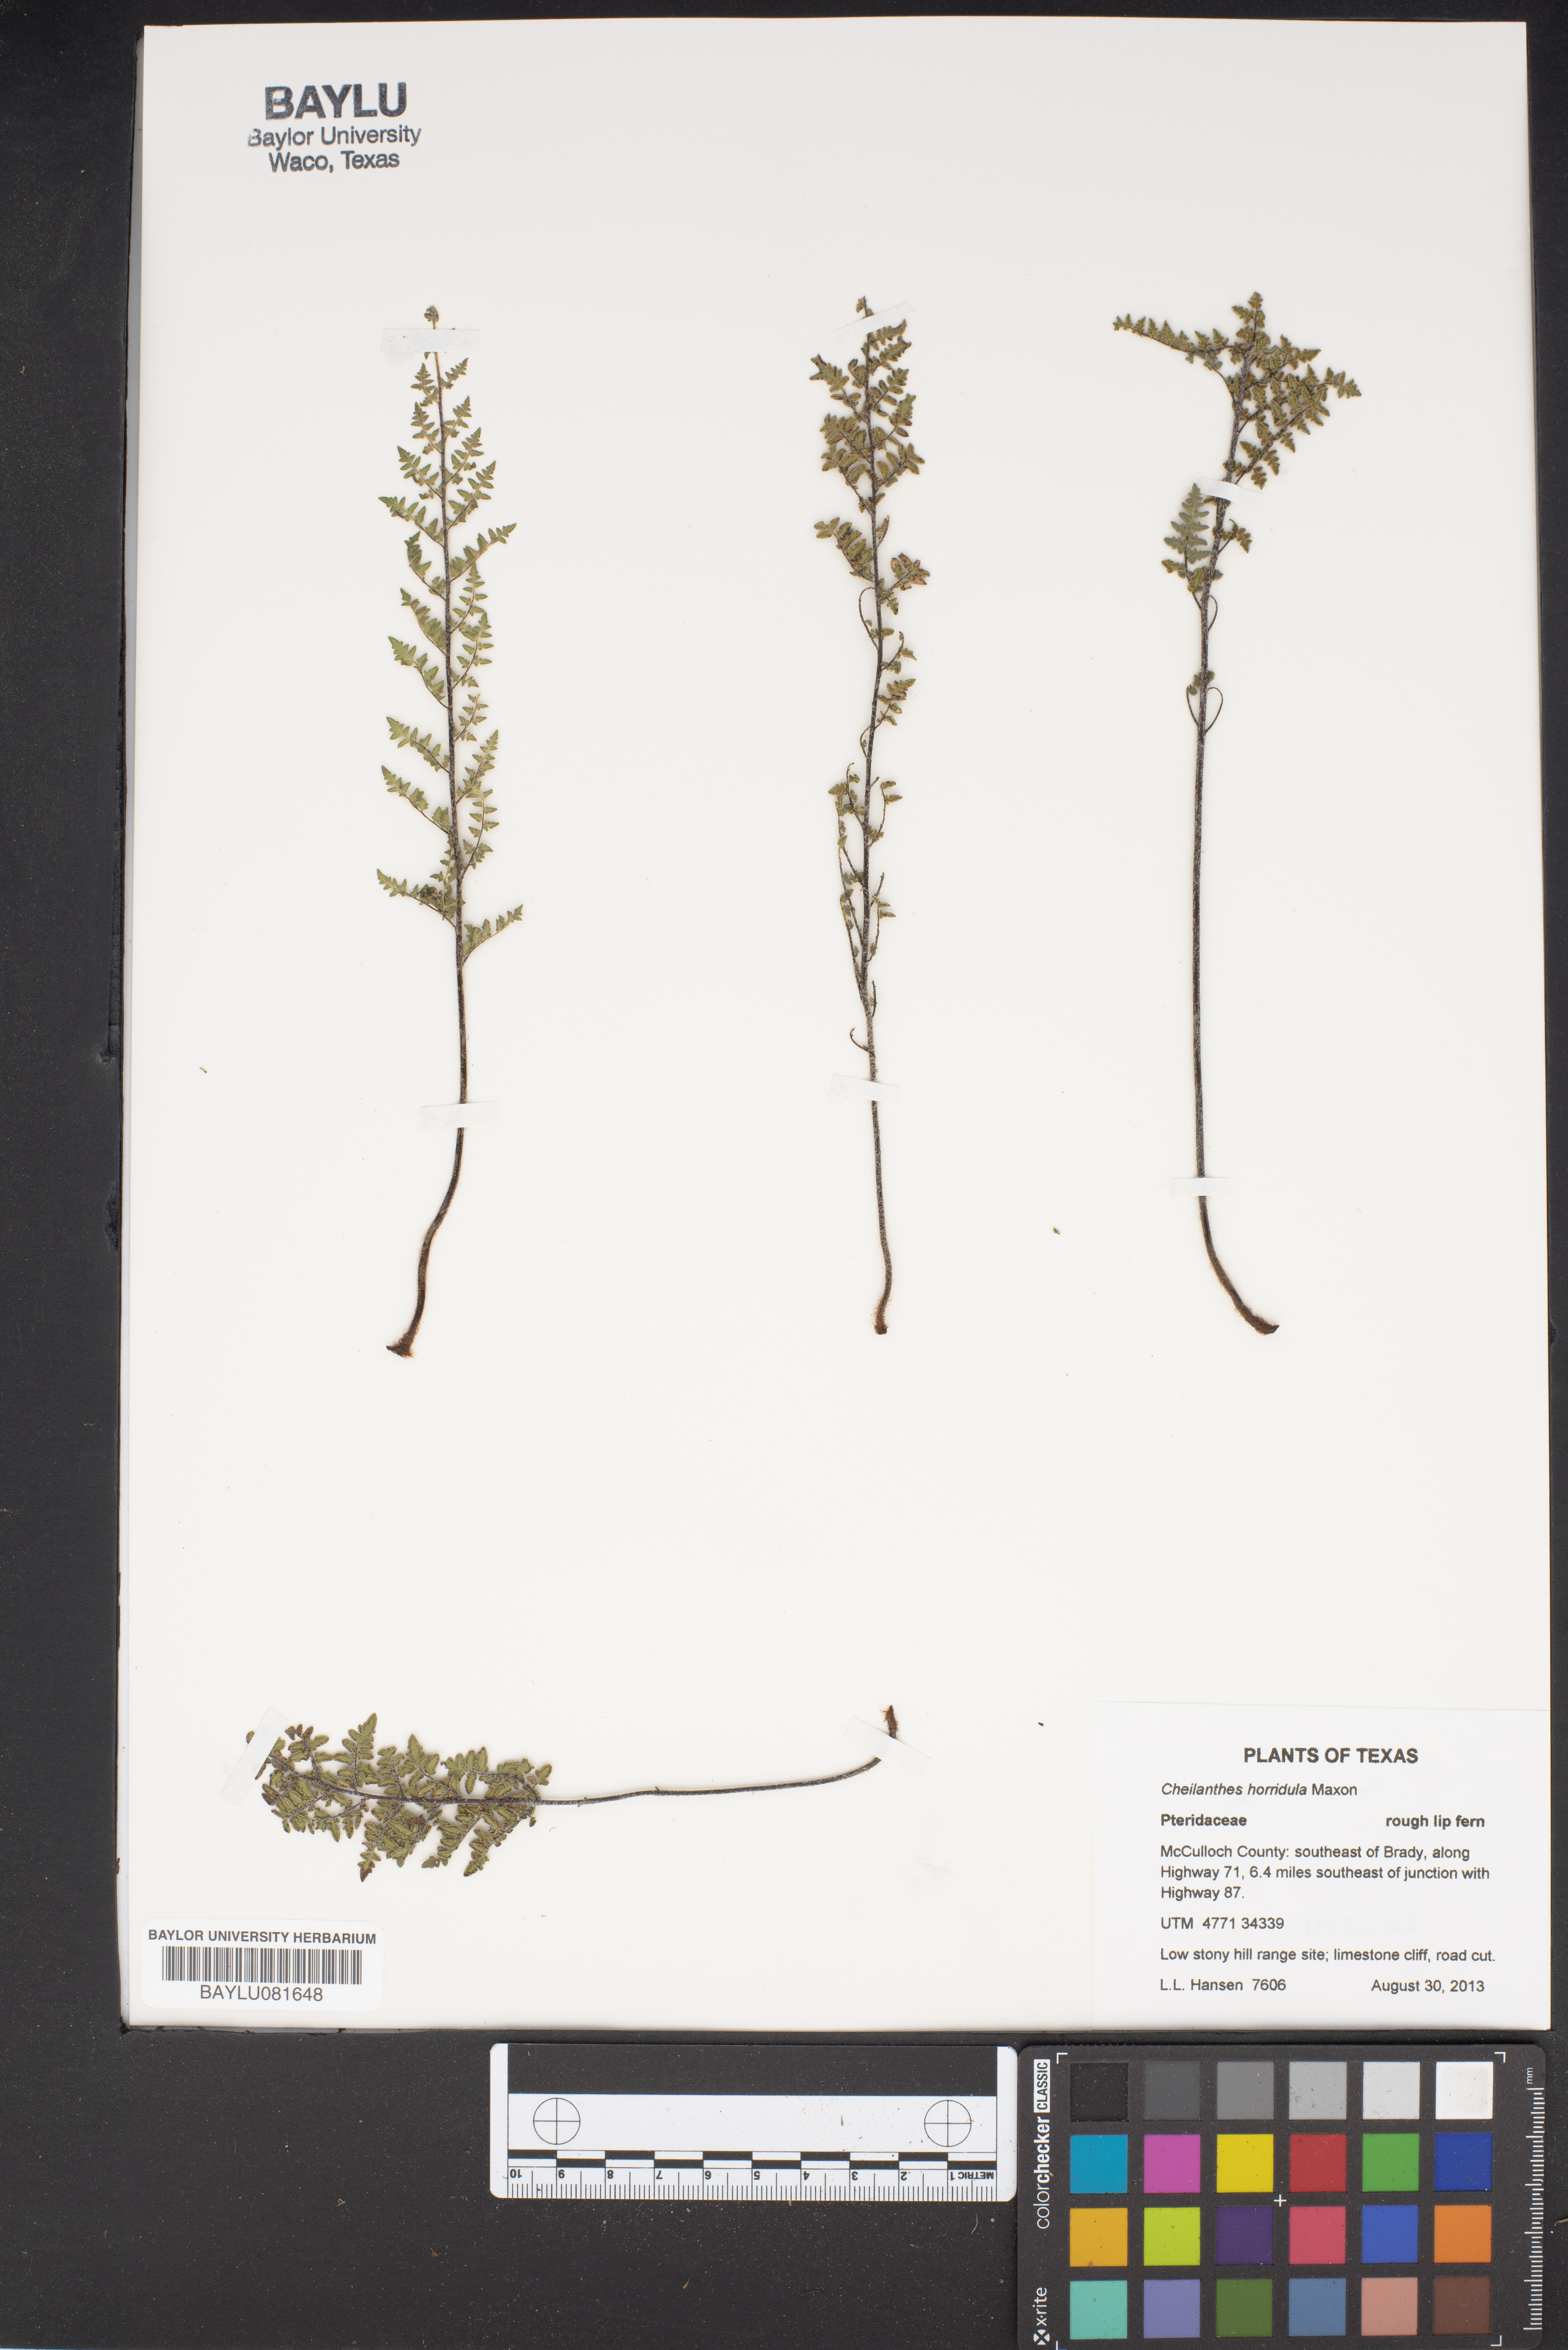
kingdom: Plantae
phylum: Tracheophyta
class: Polypodiopsida
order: Polypodiales
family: Pteridaceae
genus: Myriopteris
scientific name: Myriopteris scabra
